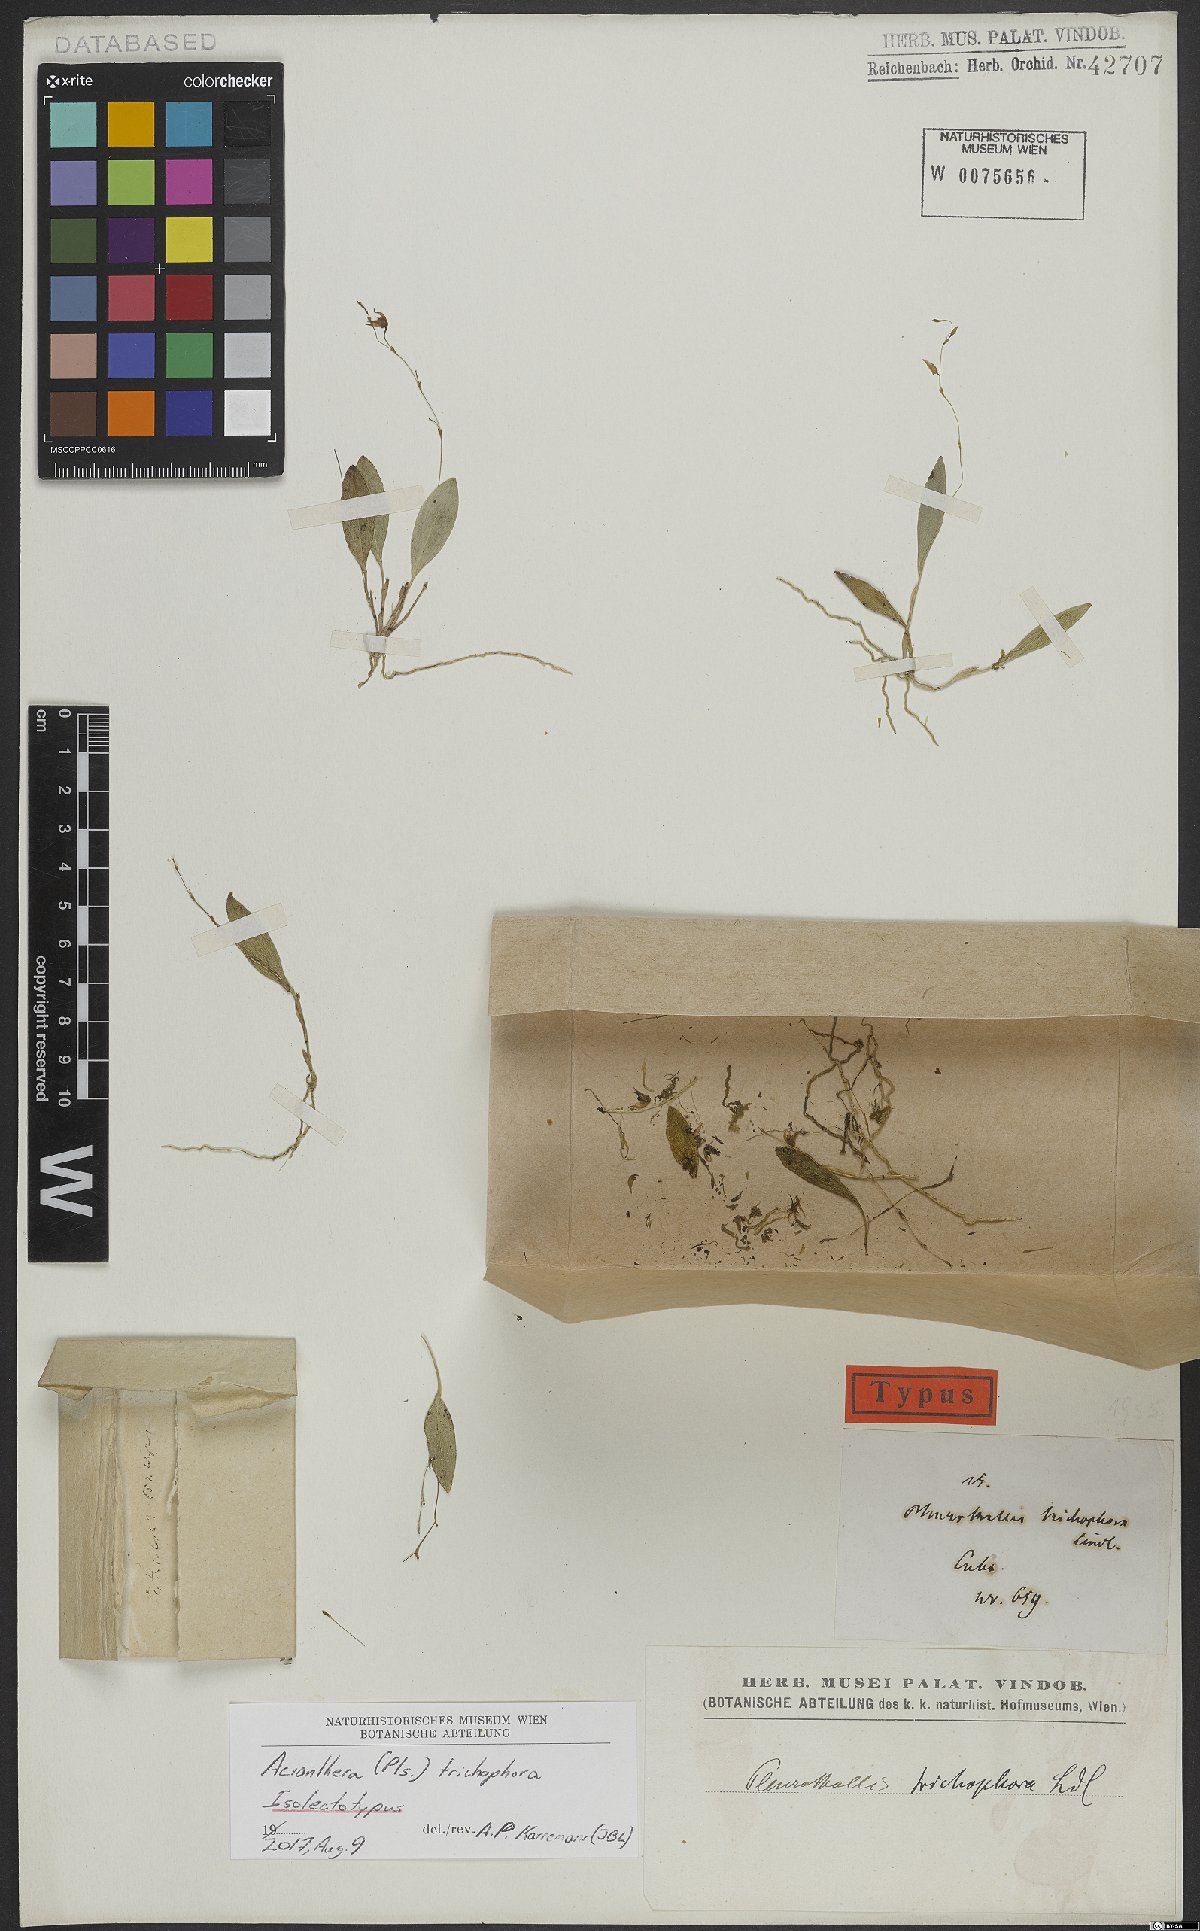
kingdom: Plantae
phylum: Tracheophyta
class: Liliopsida
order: Asparagales
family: Orchidaceae
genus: Acianthera
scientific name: Acianthera trichophora
